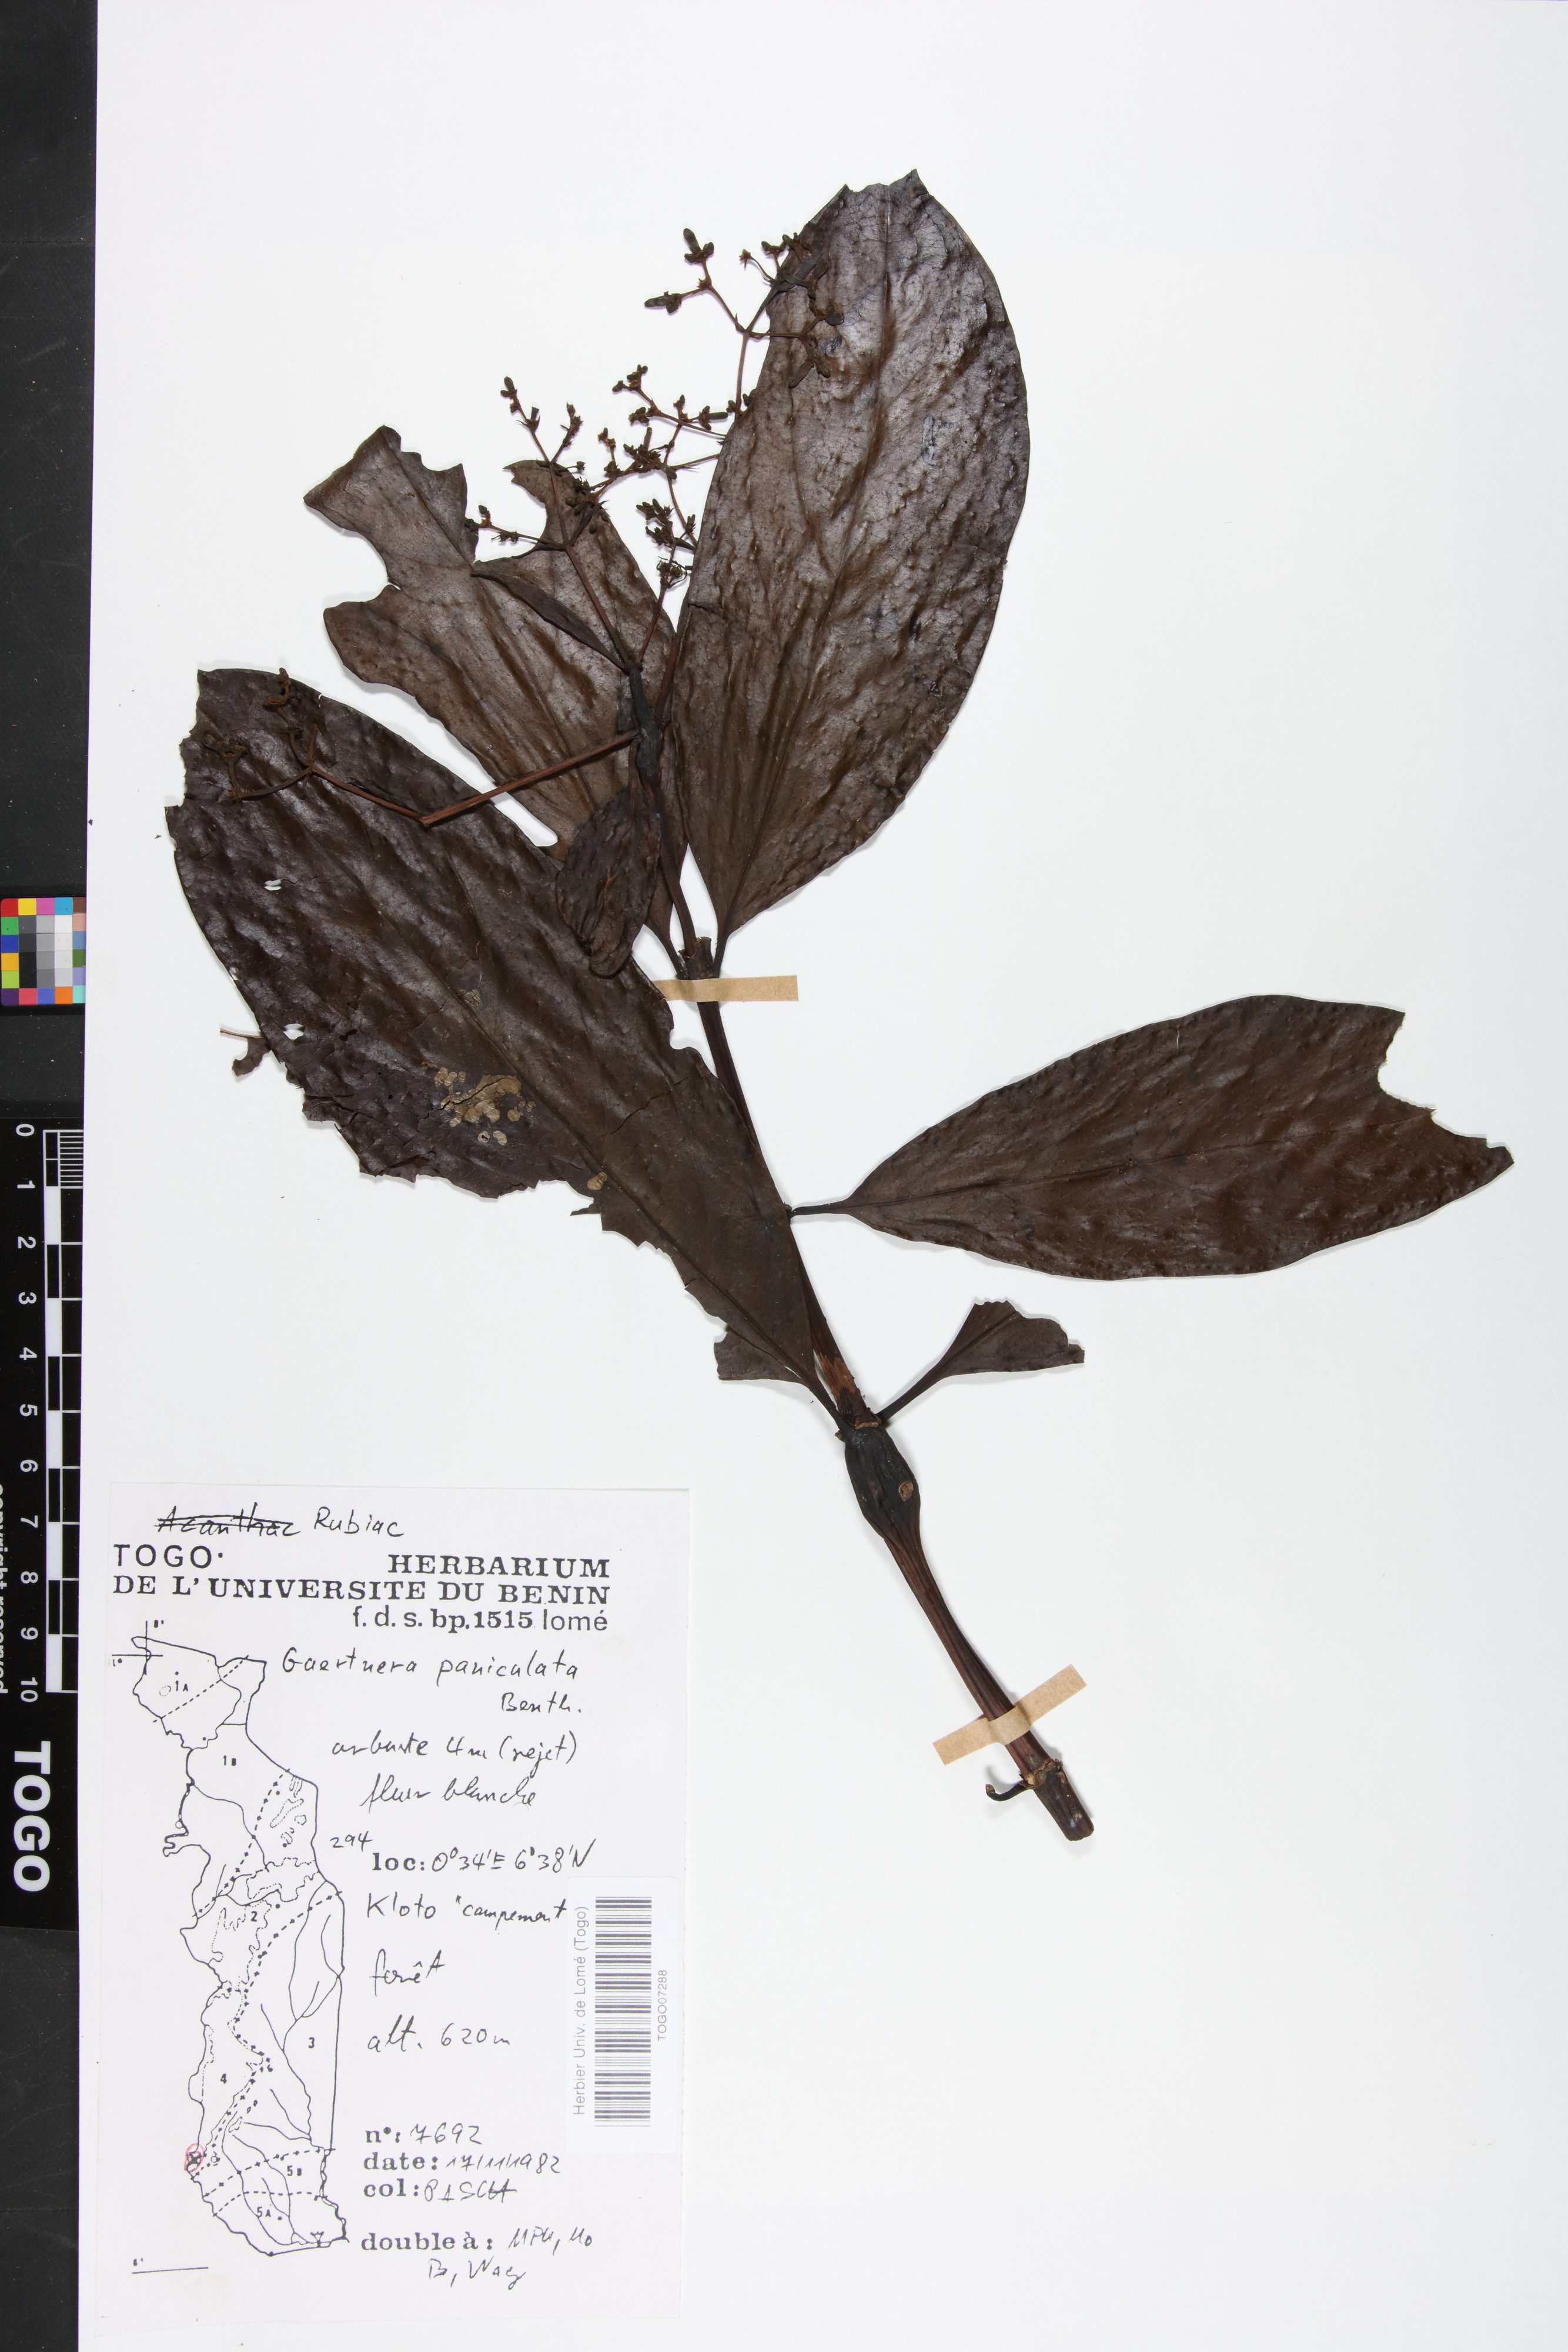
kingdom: Plantae
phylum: Tracheophyta
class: Magnoliopsida
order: Gentianales
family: Rubiaceae
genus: Gaertnera
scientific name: Gaertnera paniculata
